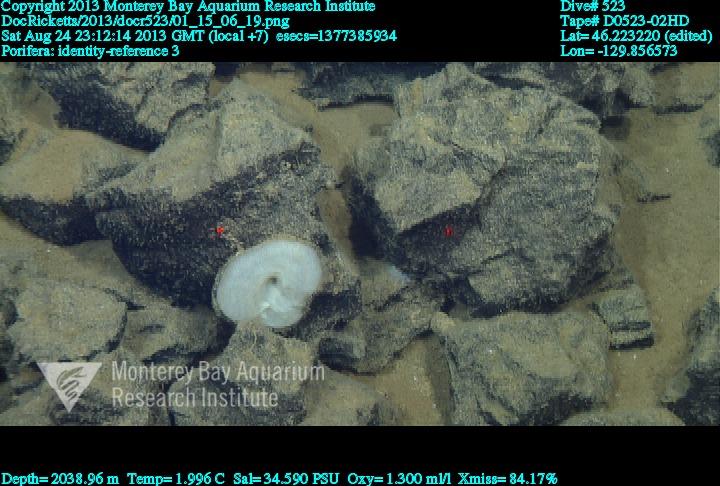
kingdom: Animalia
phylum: Porifera
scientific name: Porifera
